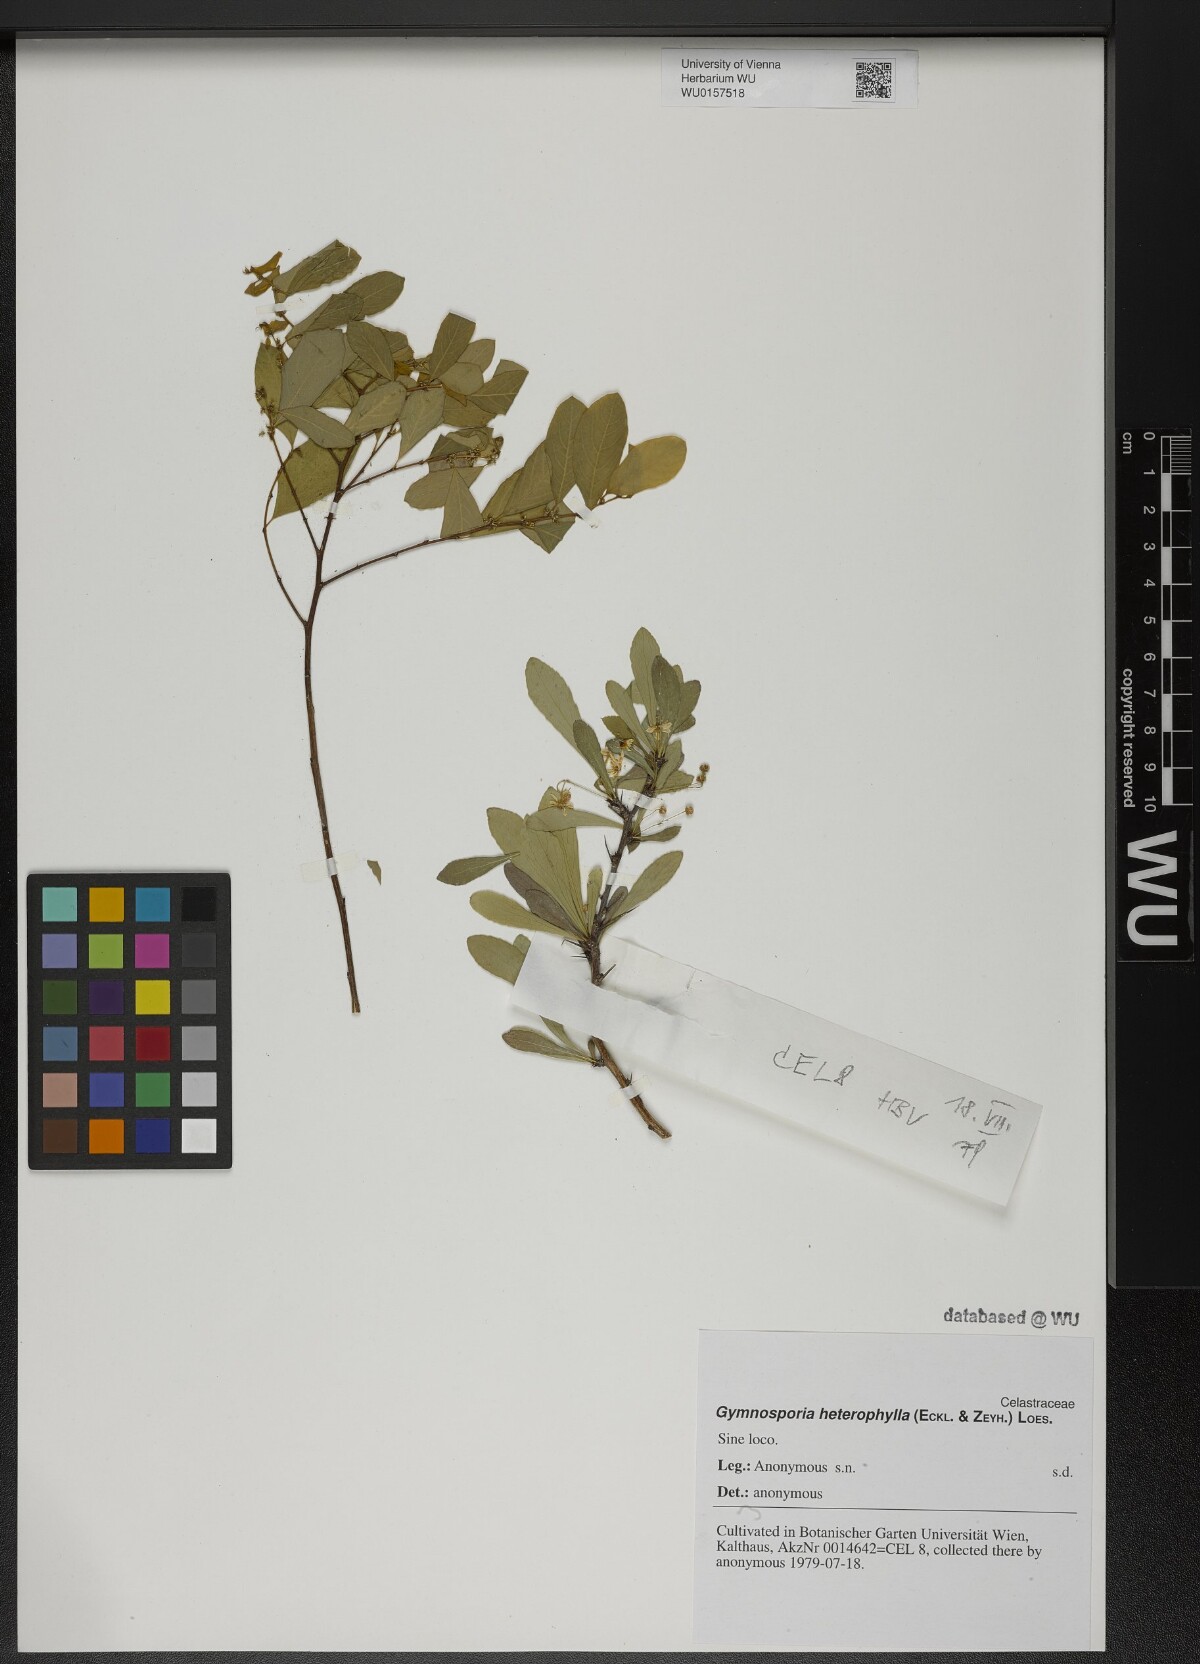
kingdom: Plantae
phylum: Tracheophyta
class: Magnoliopsida
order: Celastrales
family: Celastraceae
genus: Gymnosporia
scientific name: Gymnosporia heterophylla
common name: Angle-stem spikethorn
